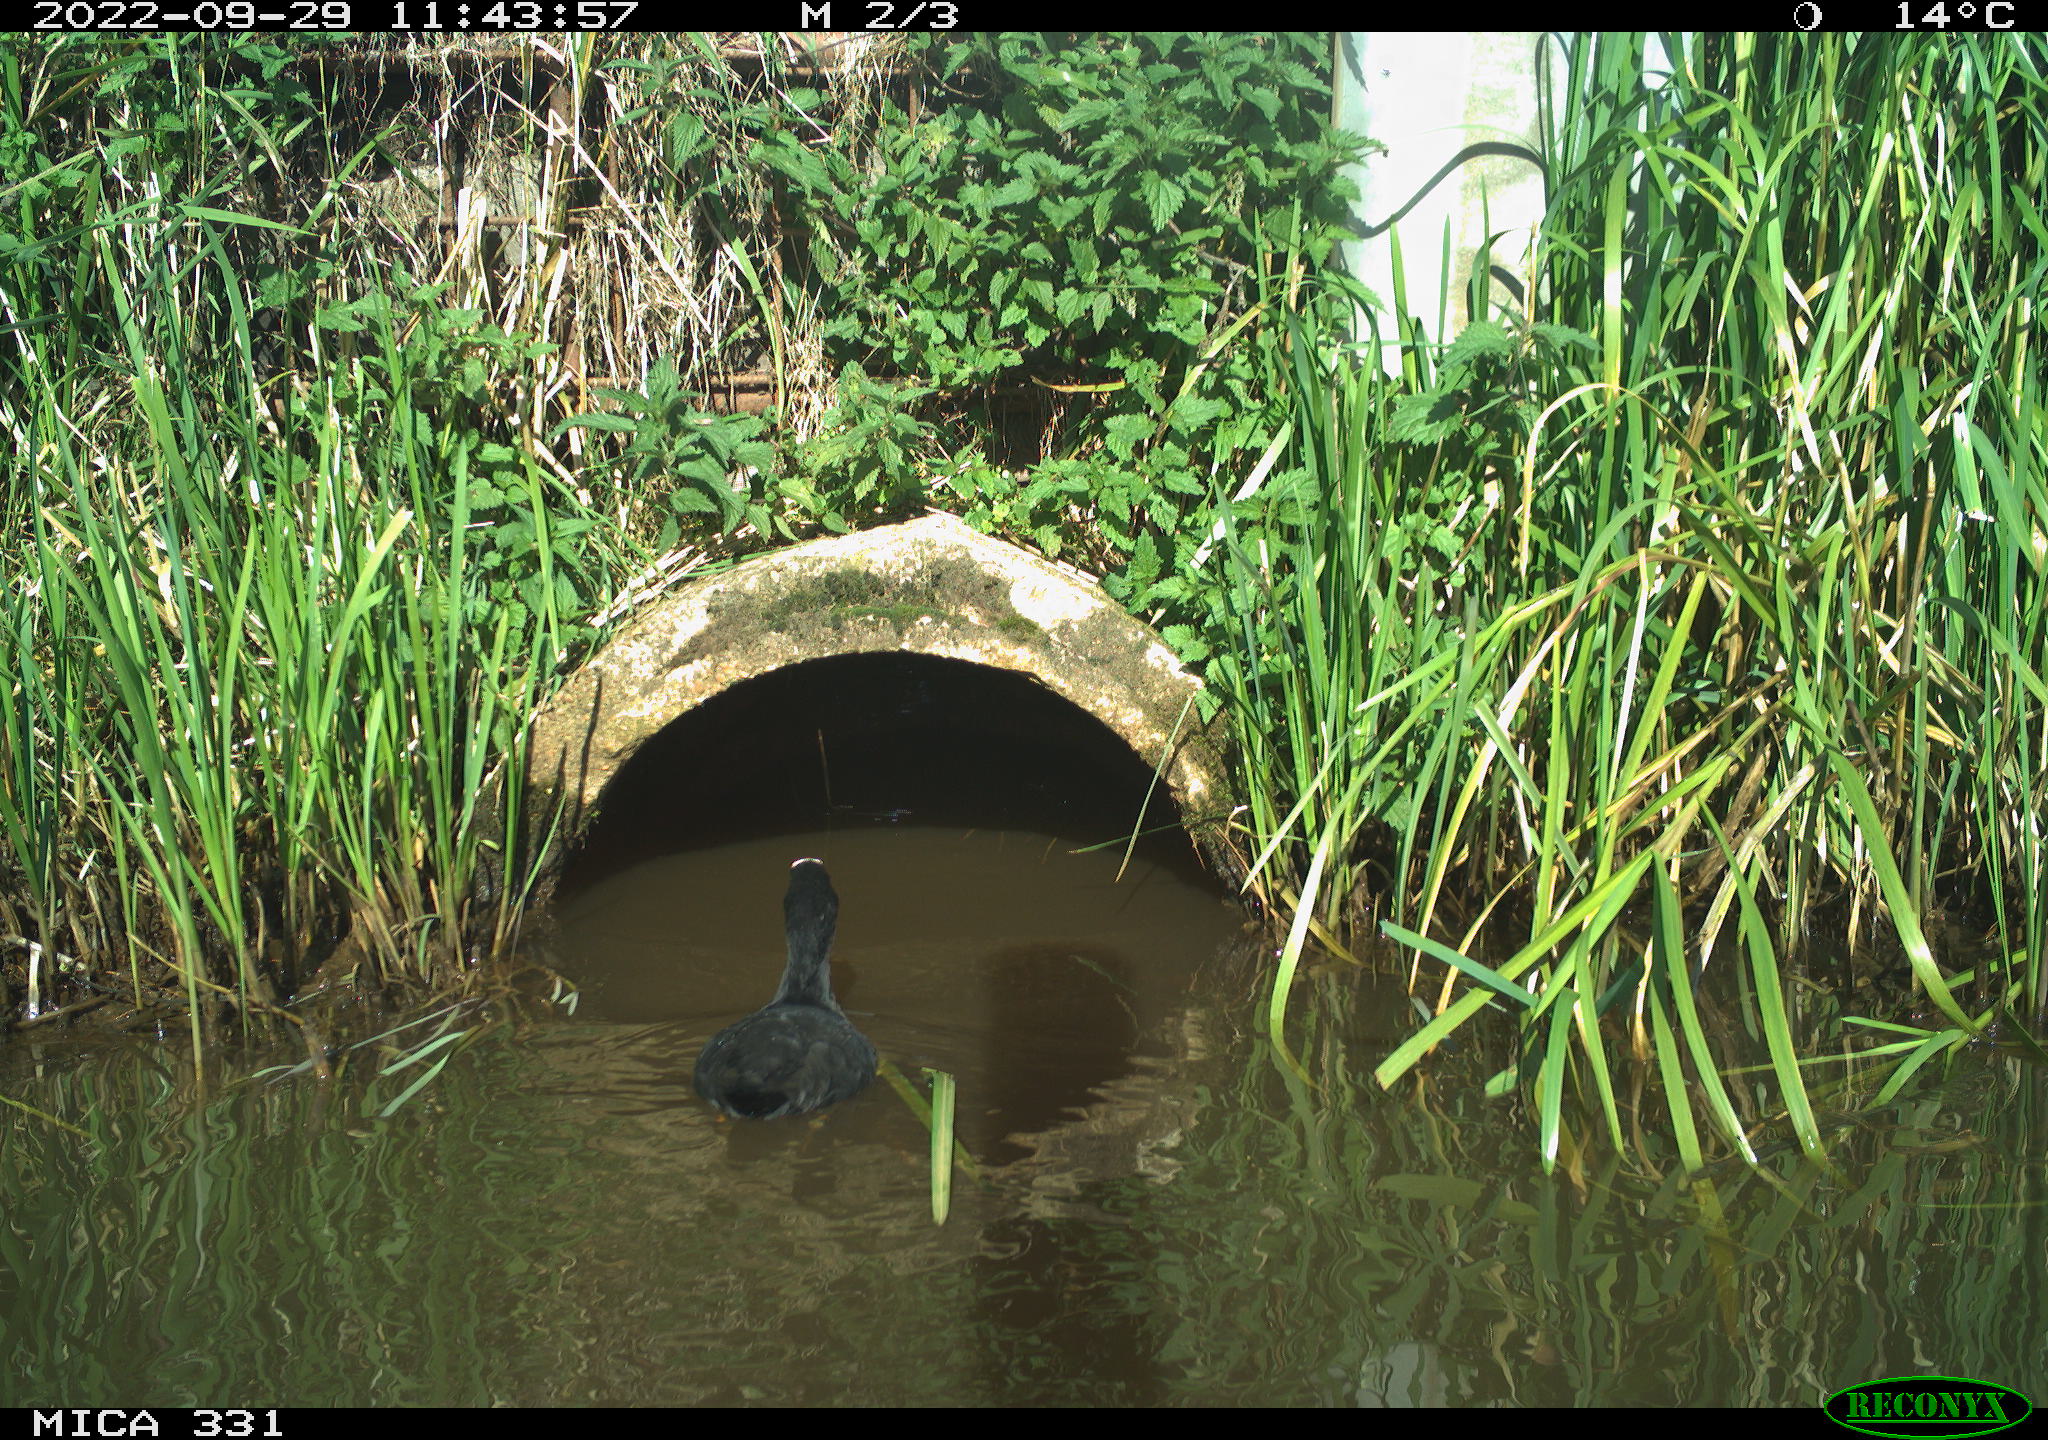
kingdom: Animalia
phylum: Chordata
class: Aves
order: Gruiformes
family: Rallidae
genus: Fulica
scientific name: Fulica atra
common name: Eurasian coot
